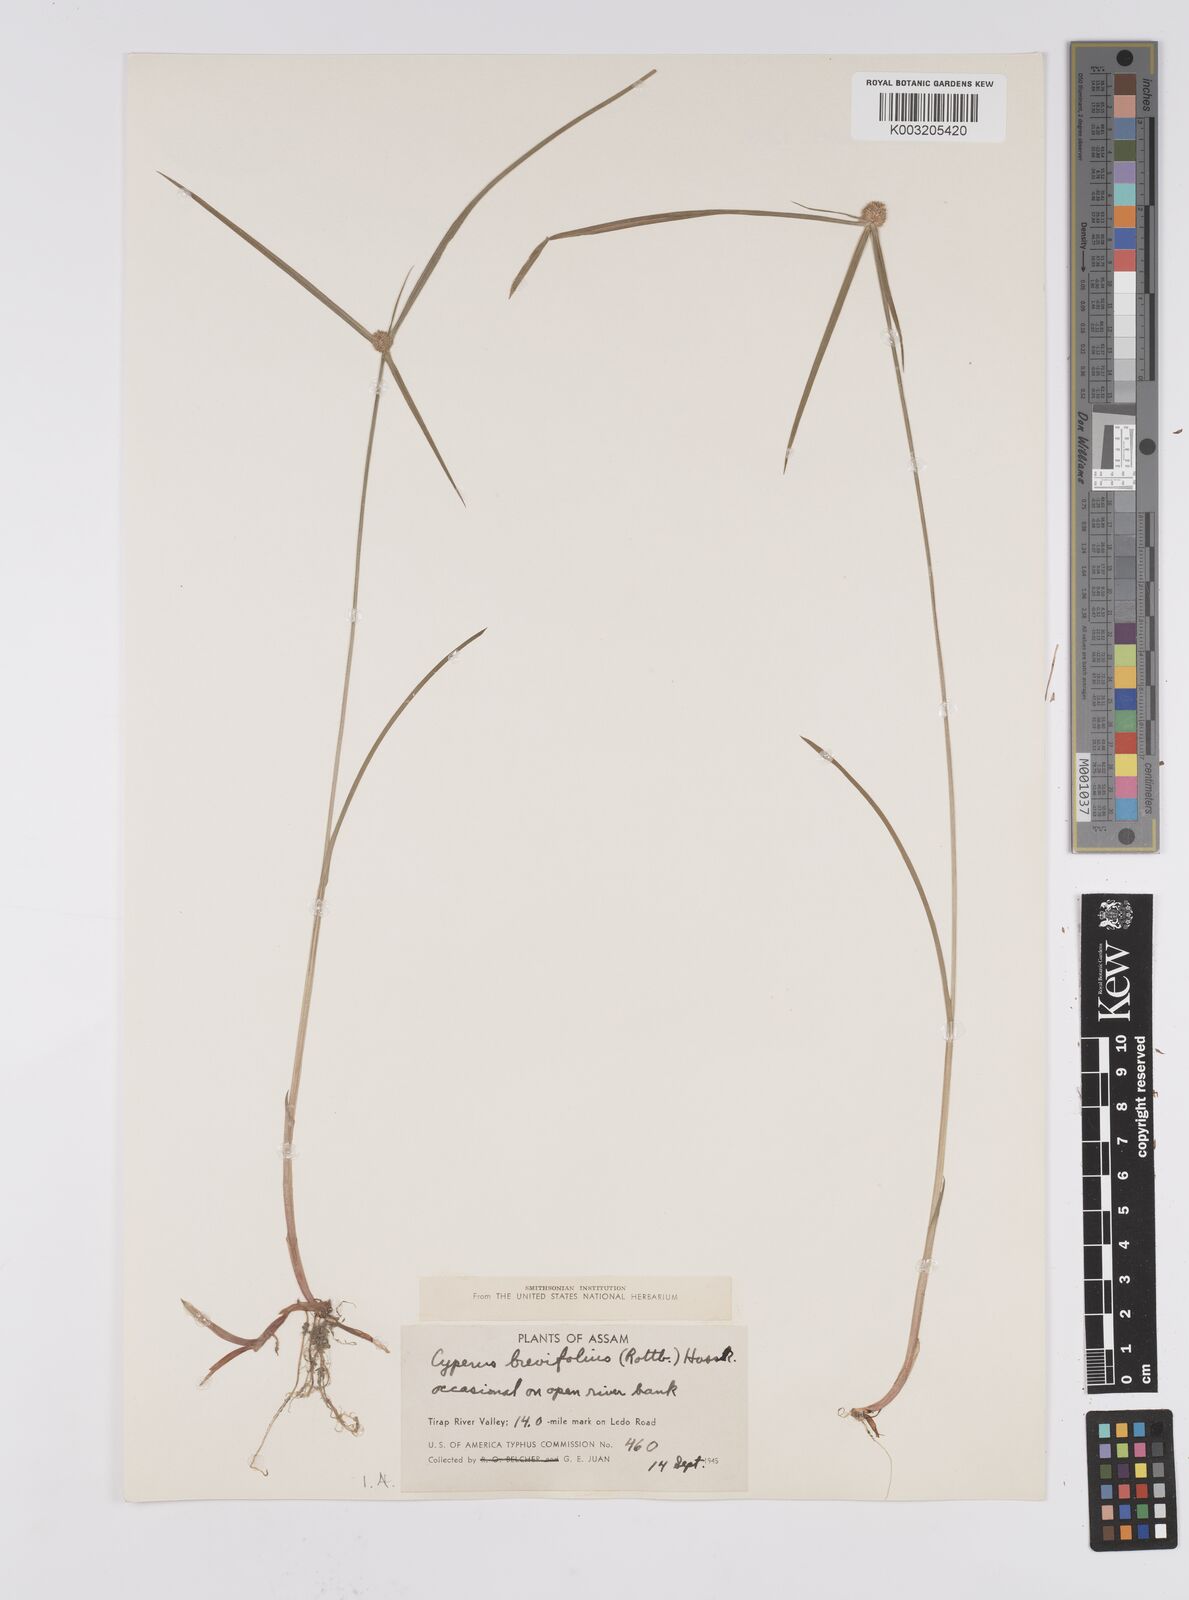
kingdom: Plantae
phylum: Tracheophyta
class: Liliopsida
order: Poales
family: Cyperaceae
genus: Cyperus
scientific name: Cyperus brevifolius
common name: Globe kyllinga
